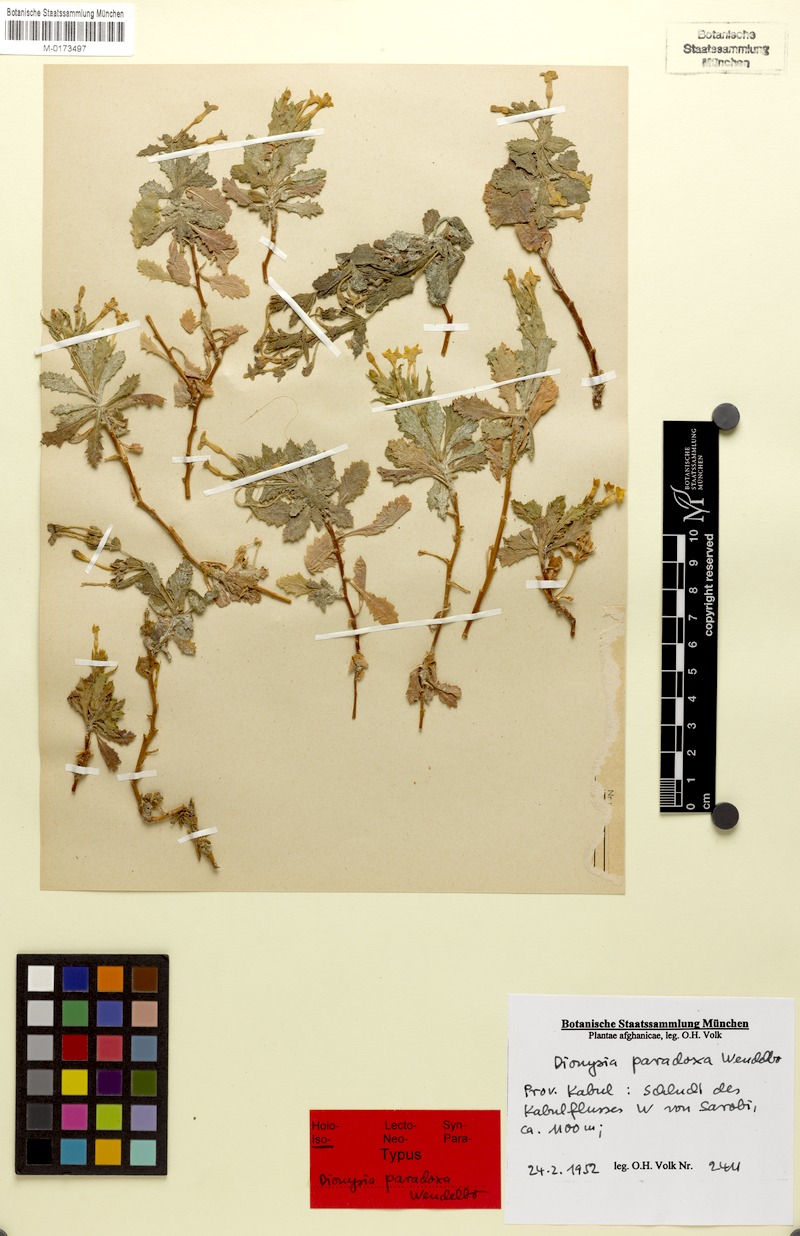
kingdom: Plantae
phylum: Tracheophyta
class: Magnoliopsida
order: Ericales
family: Primulaceae
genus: Dionysia
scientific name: Dionysia paradoxa
